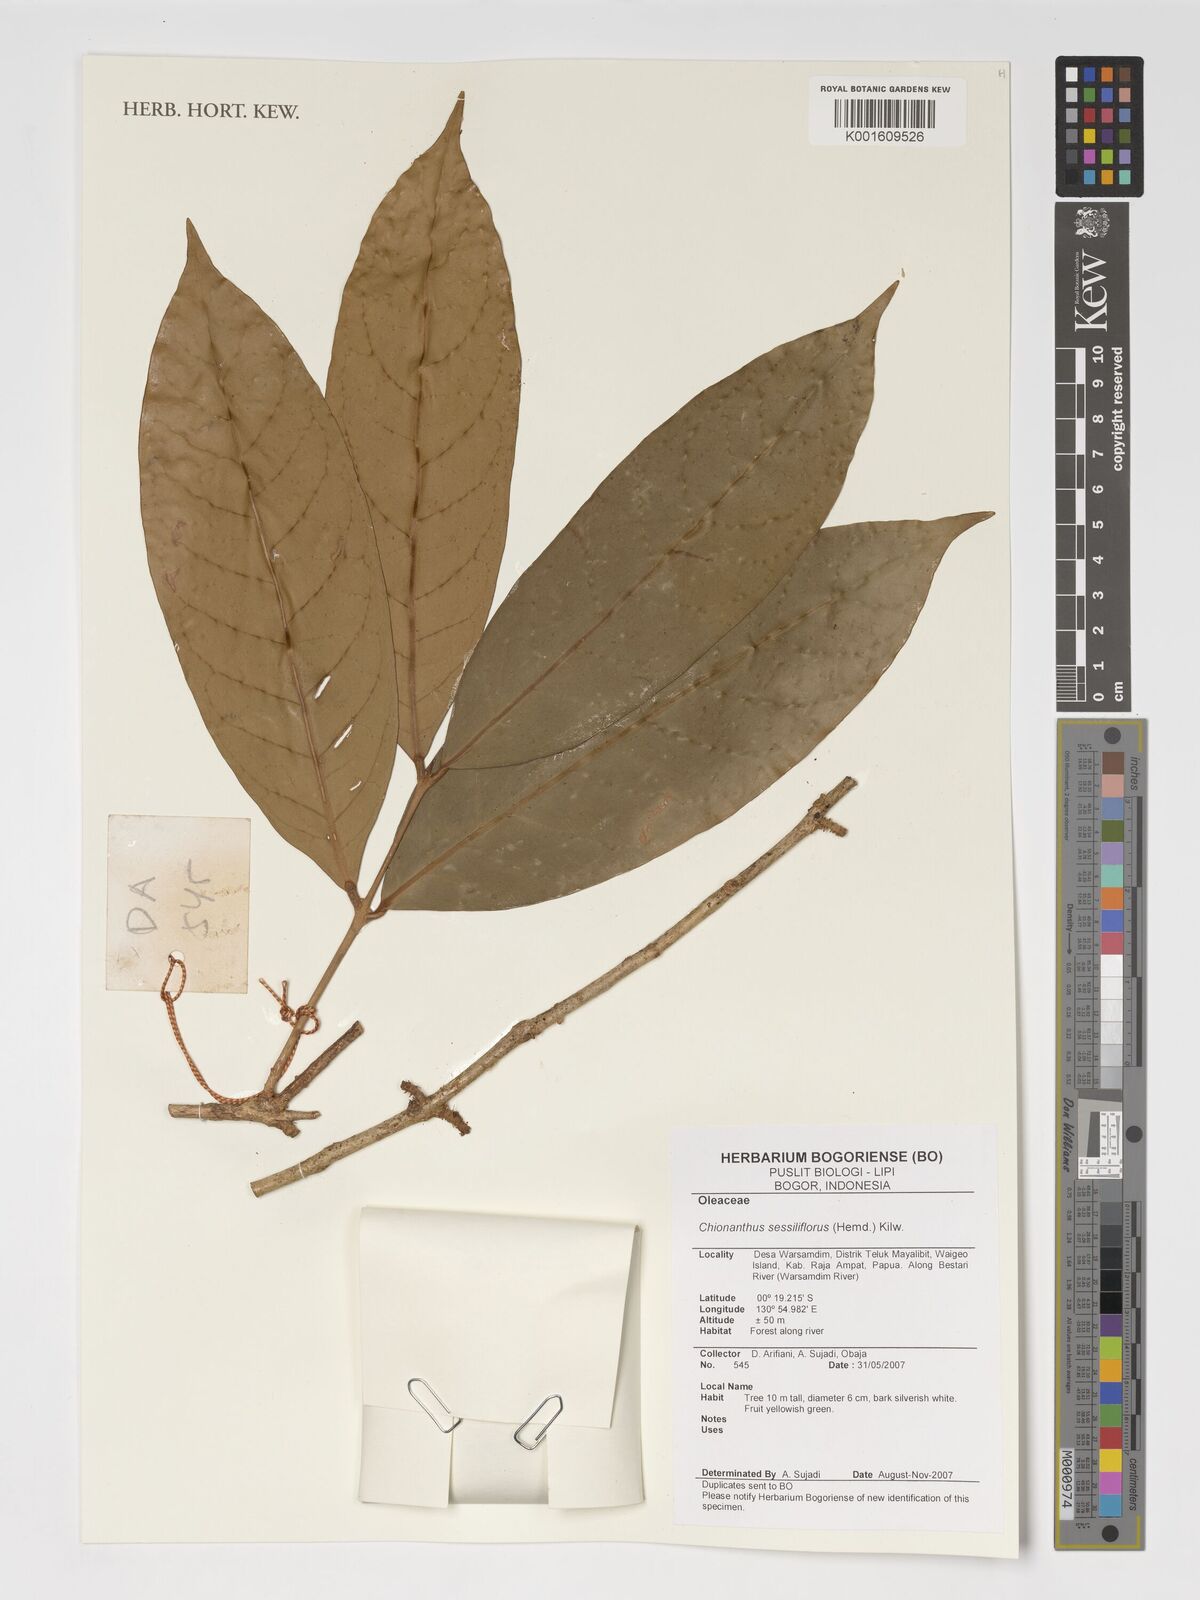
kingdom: Plantae
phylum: Tracheophyta
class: Magnoliopsida
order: Lamiales
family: Oleaceae
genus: Chionanthus
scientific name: Chionanthus sessiliflorus
